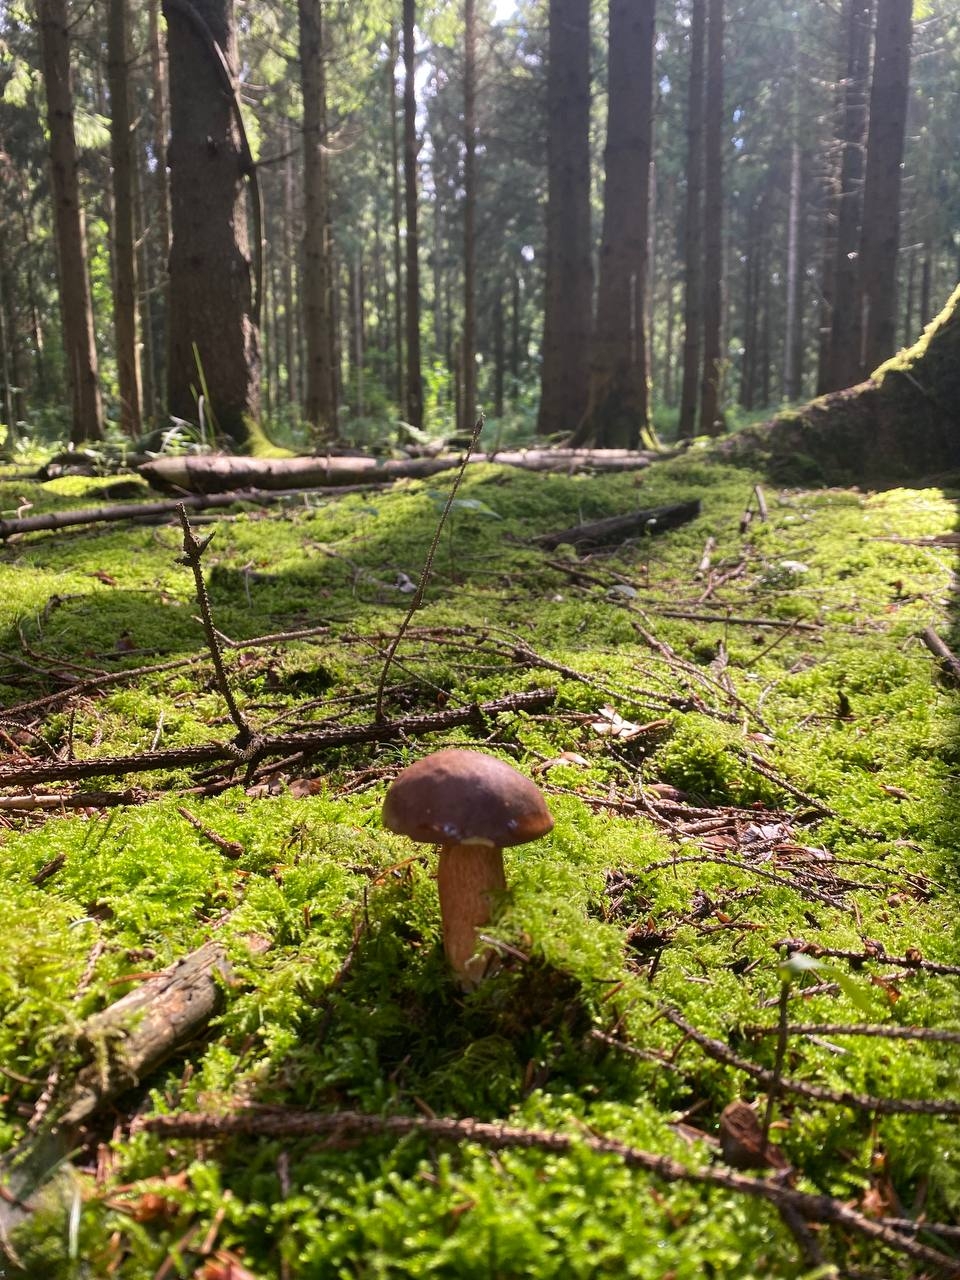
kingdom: Fungi
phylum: Basidiomycota
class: Agaricomycetes
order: Boletales
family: Boletaceae
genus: Imleria
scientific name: Imleria badia
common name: brunstokket rørhat
